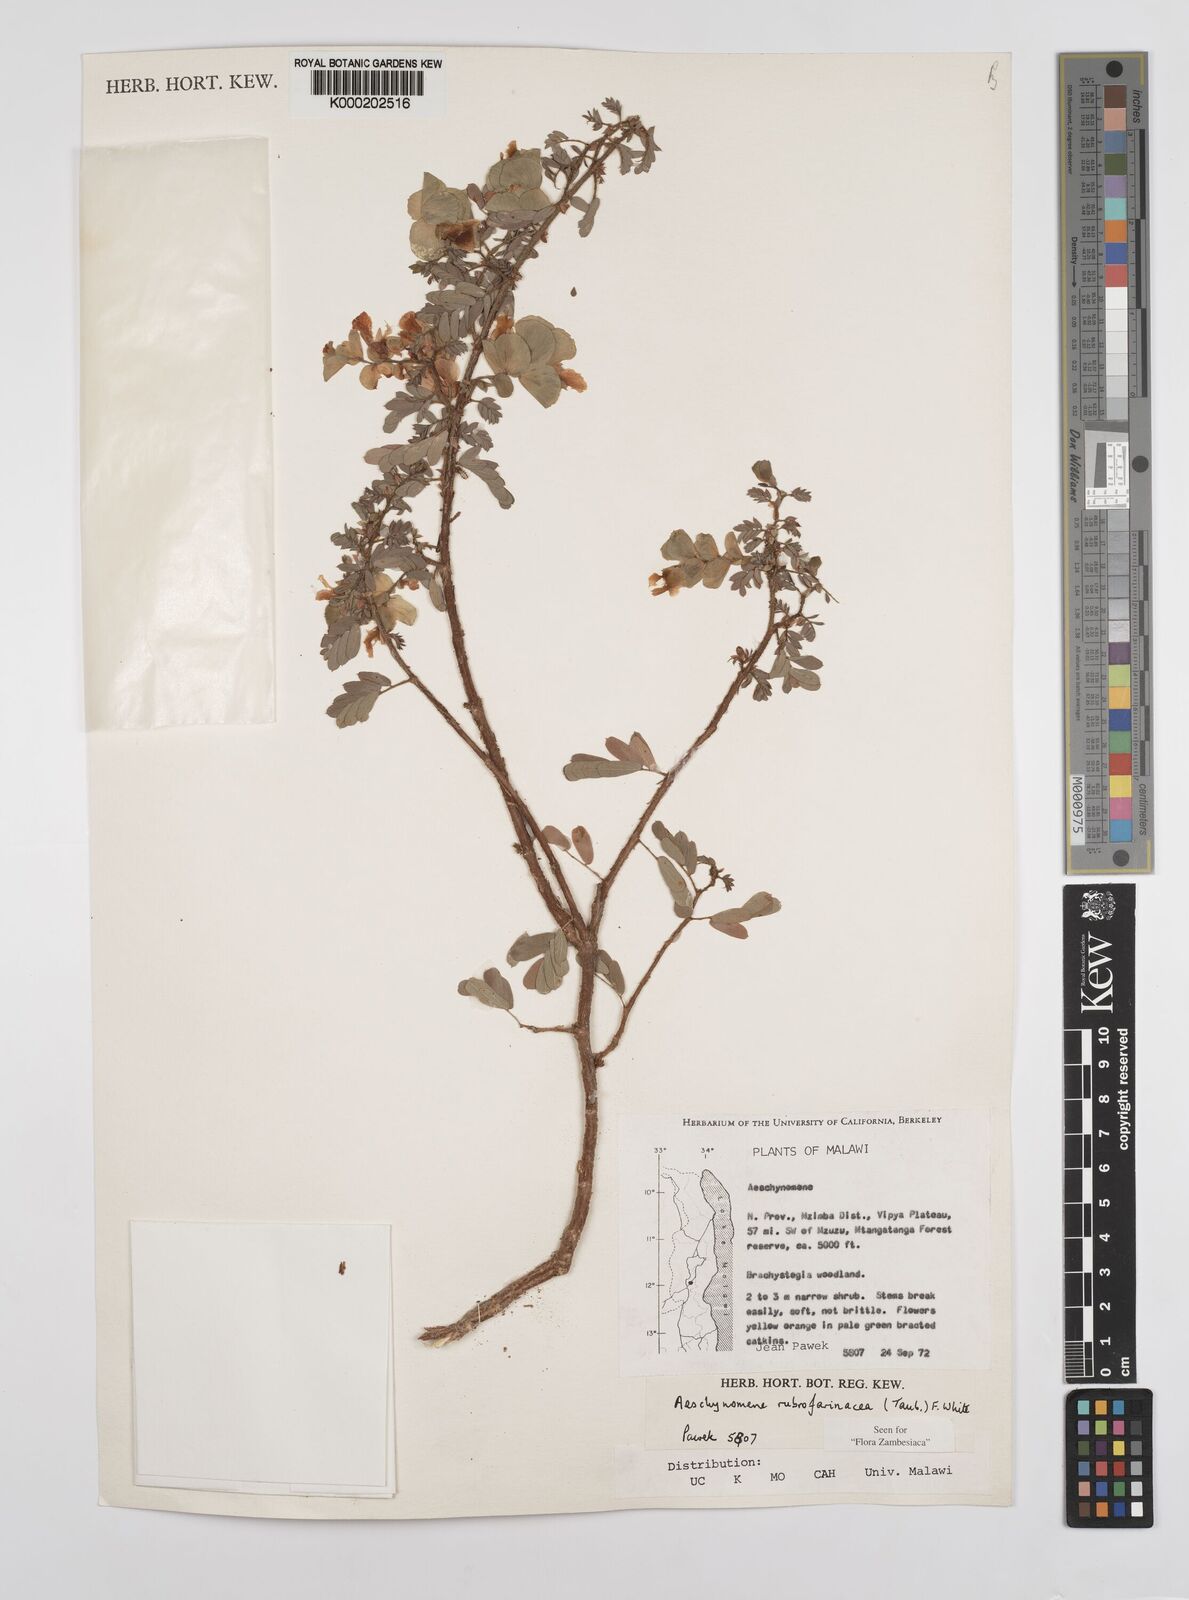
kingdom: Plantae
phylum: Tracheophyta
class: Magnoliopsida
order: Fabales
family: Fabaceae
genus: Aeschynomene
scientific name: Aeschynomene rubrofarinacea
